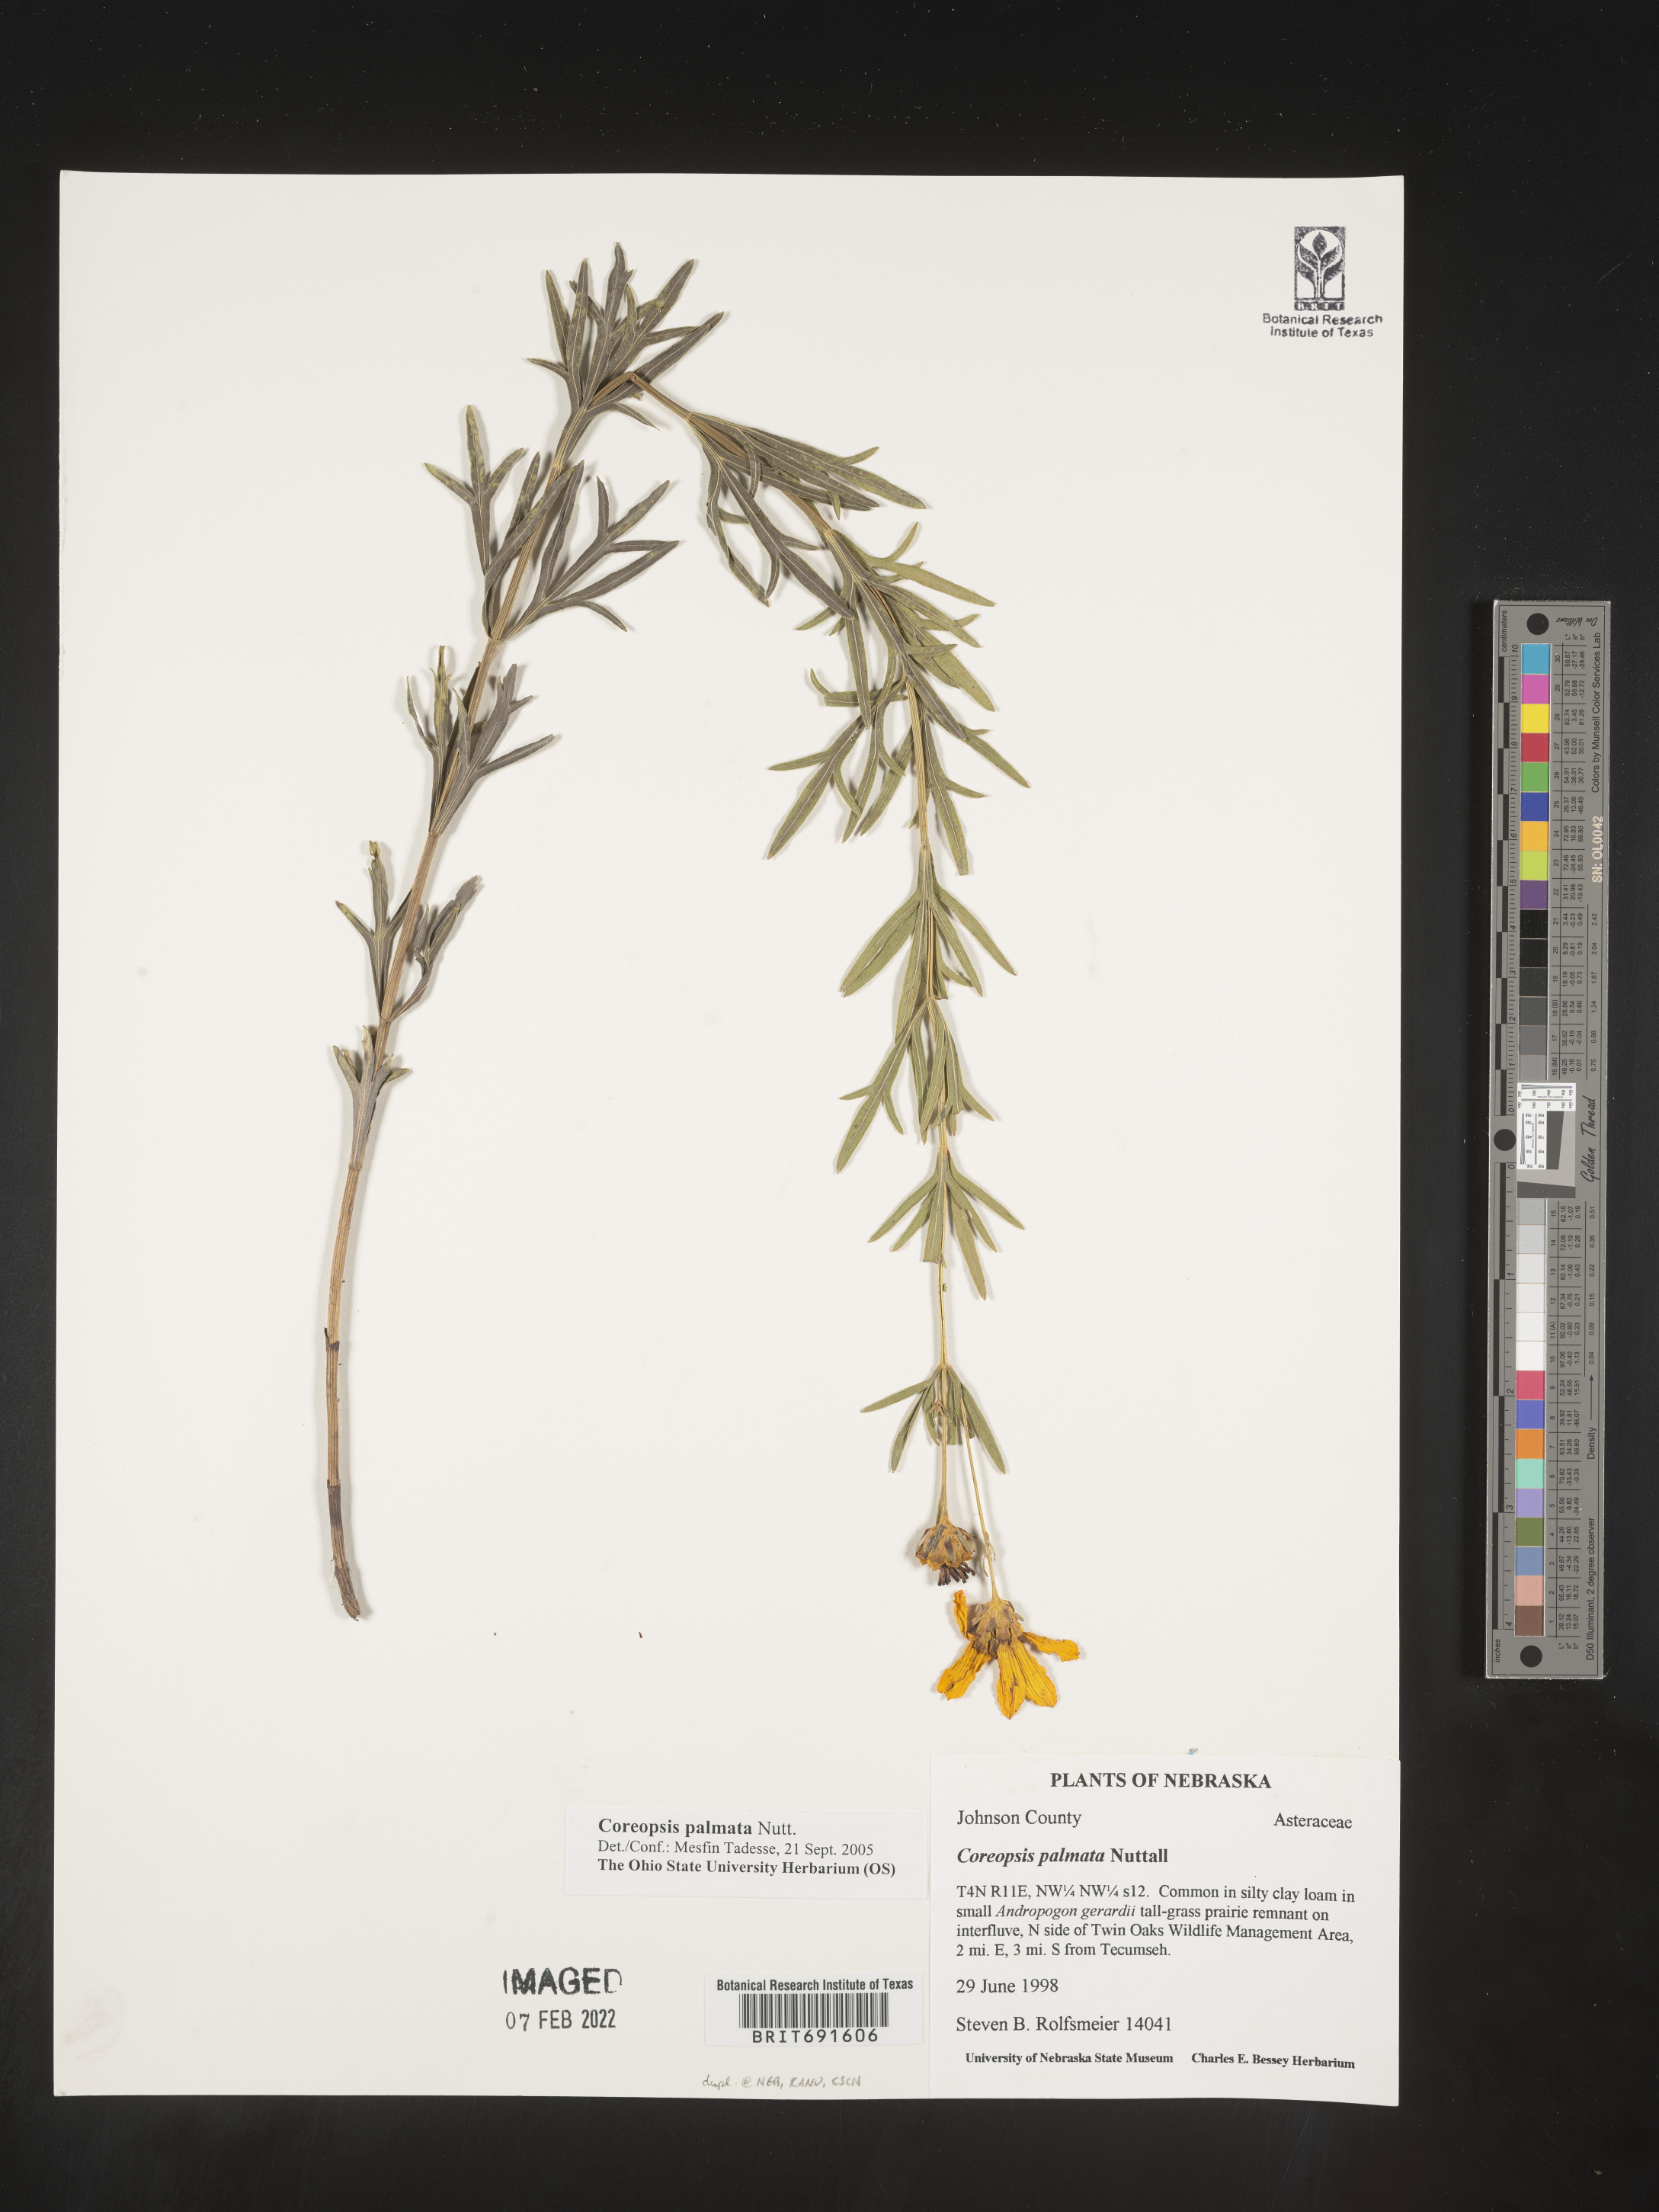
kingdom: Plantae
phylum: Tracheophyta
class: Magnoliopsida
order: Asterales
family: Asteraceae
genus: Coreopsis
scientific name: Coreopsis palmata
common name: Prairie coreopsis
